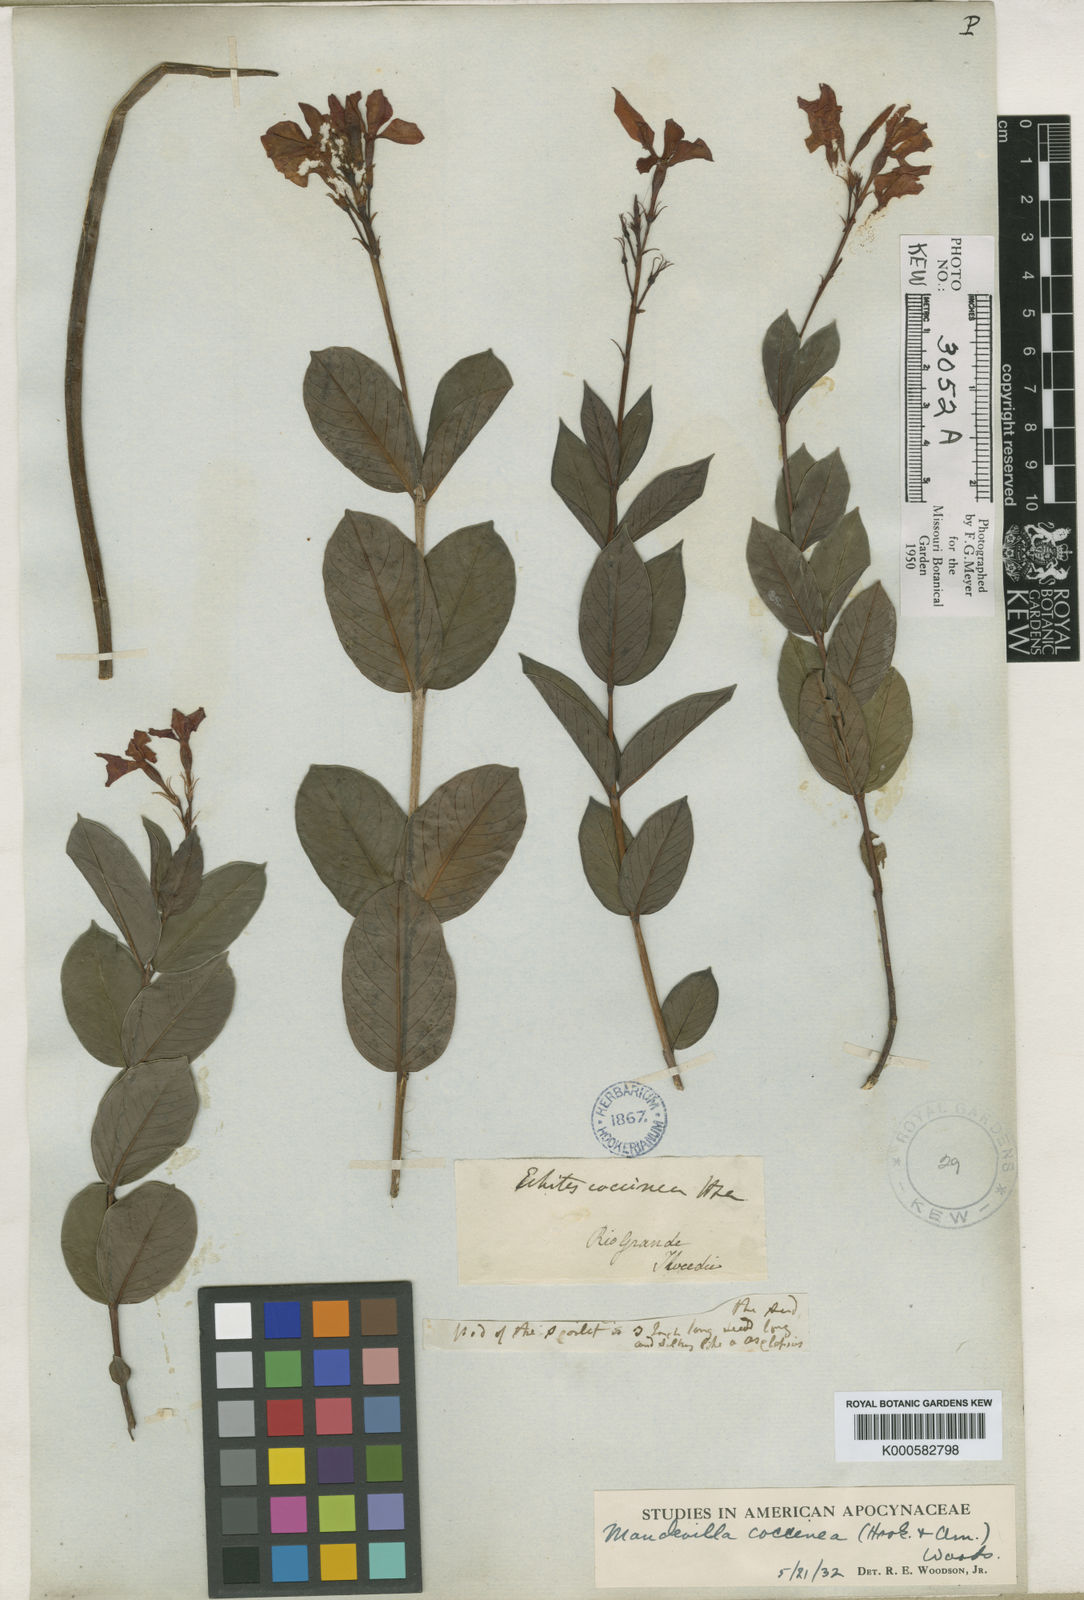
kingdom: Plantae
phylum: Tracheophyta
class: Magnoliopsida
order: Gentianales
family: Apocynaceae
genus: Mandevilla
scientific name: Mandevilla coccinea
